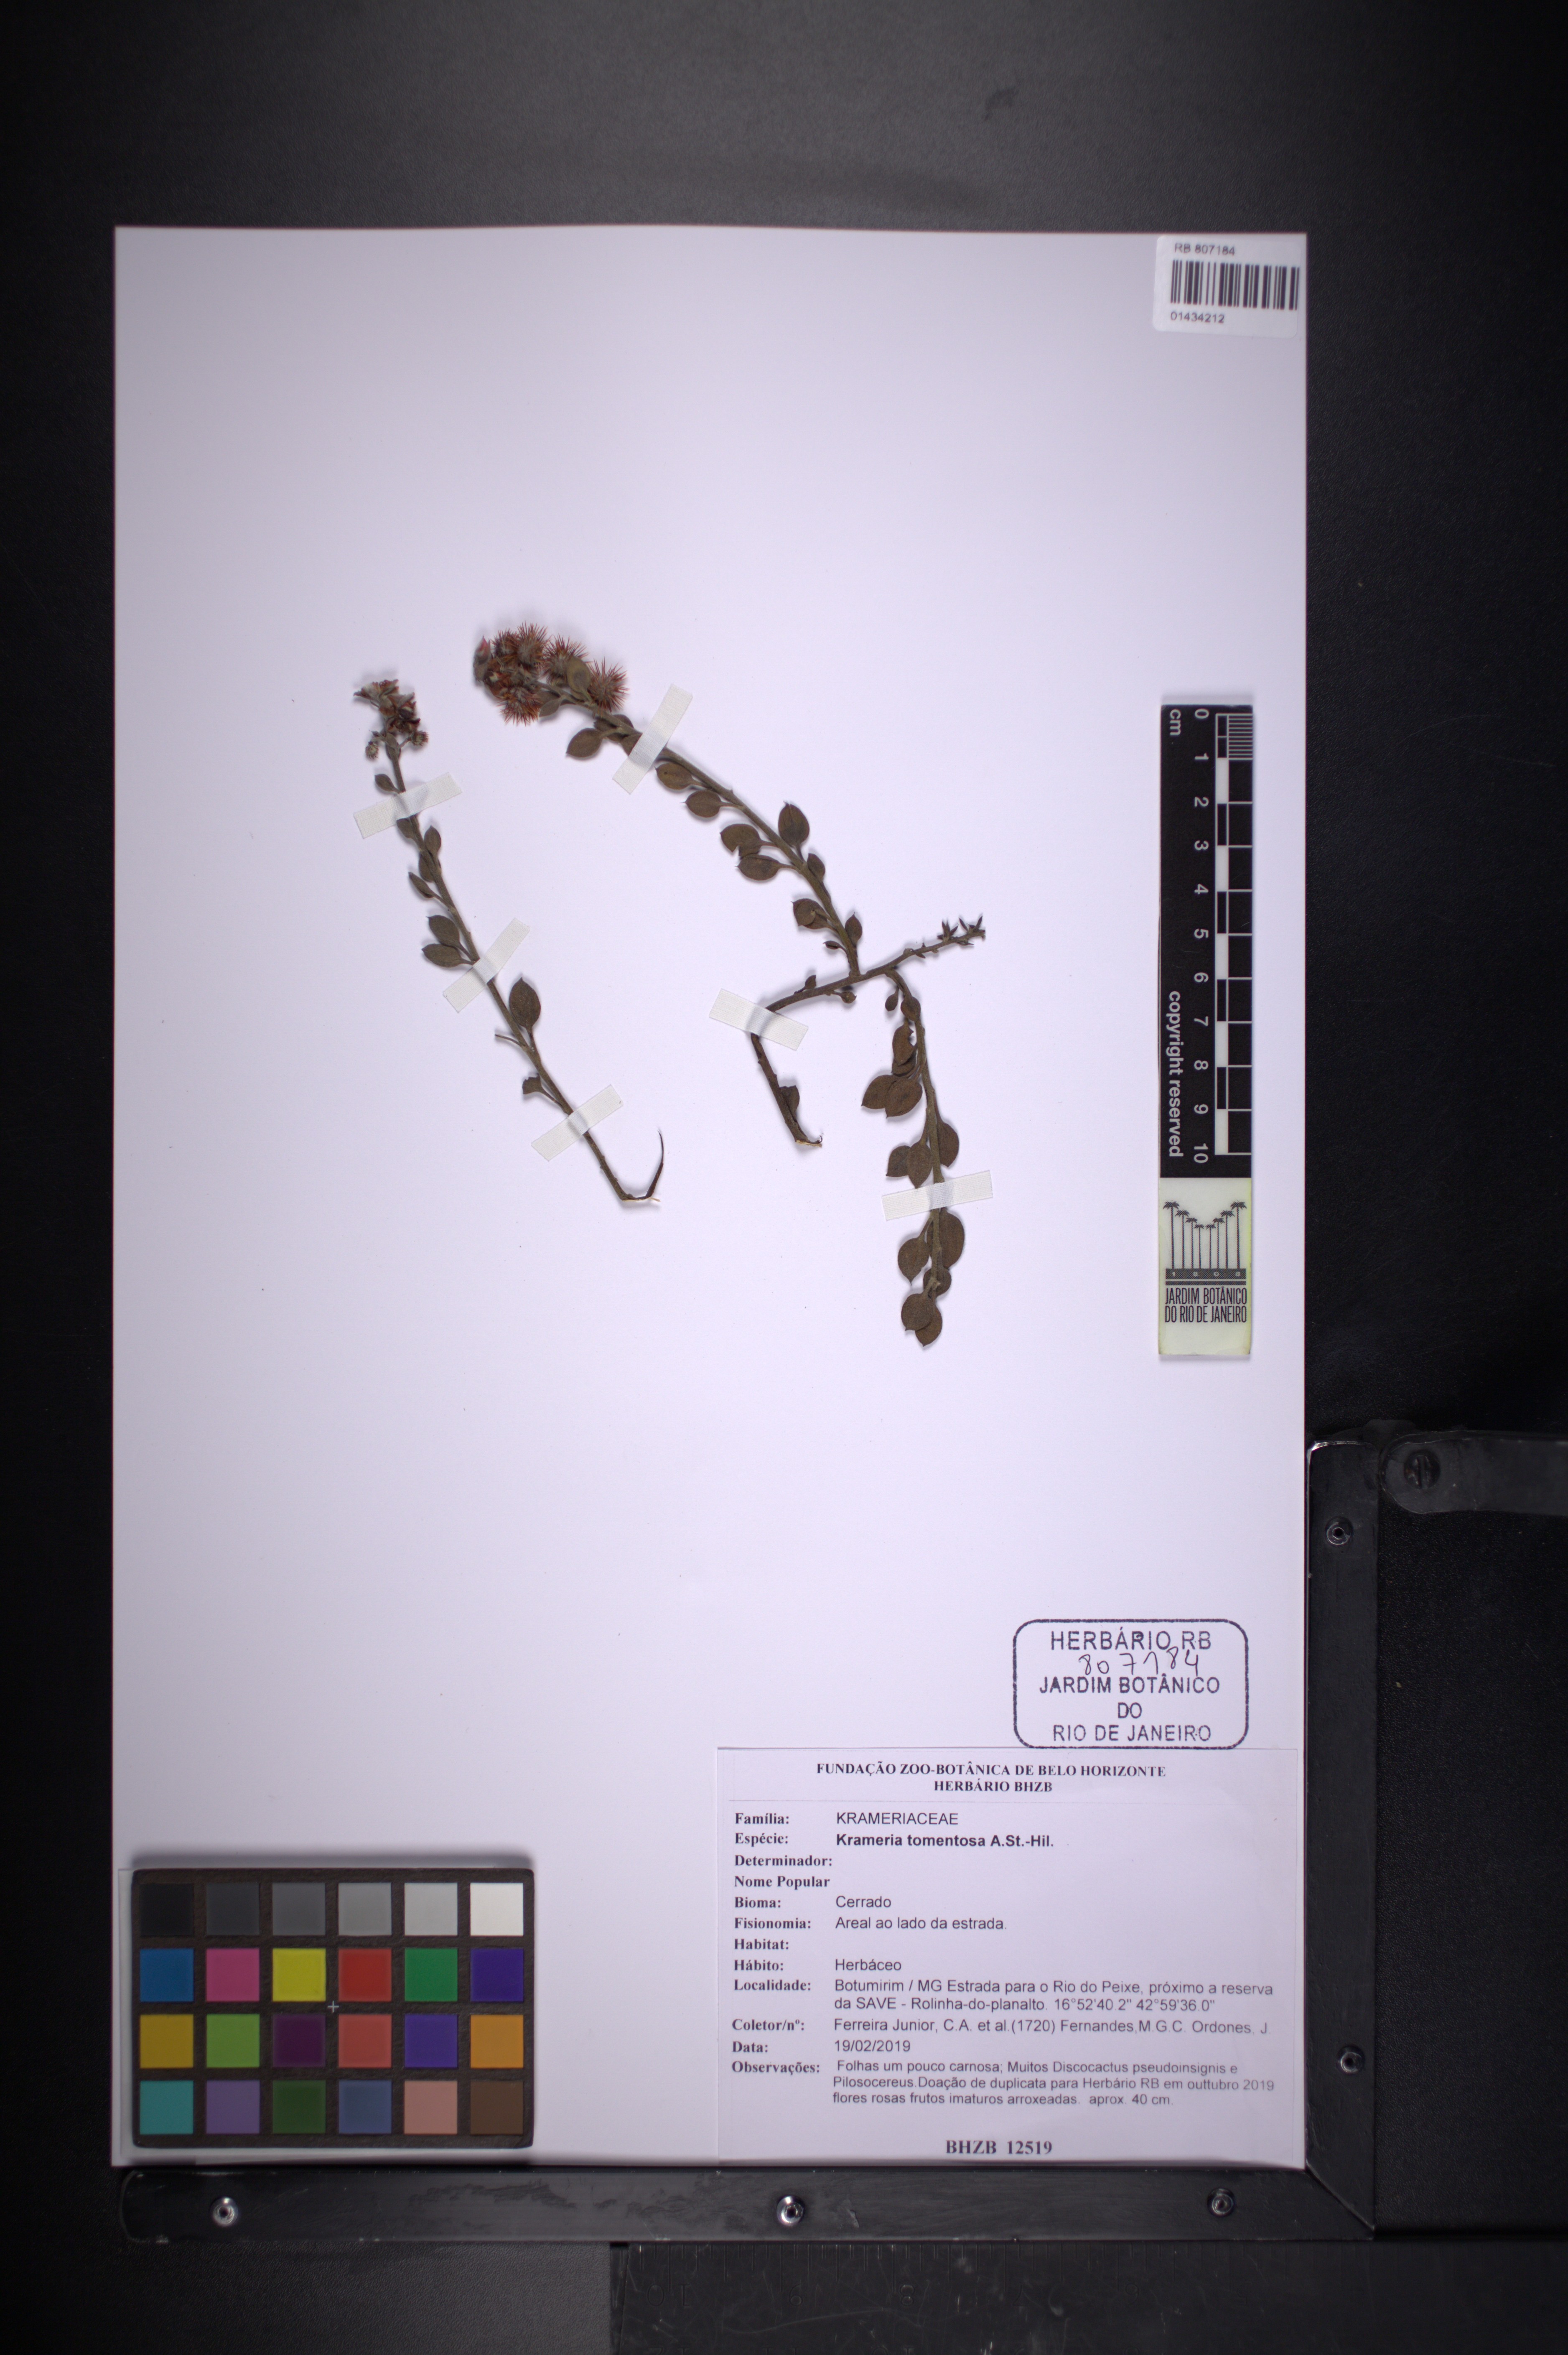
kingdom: Plantae
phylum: Tracheophyta
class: Magnoliopsida
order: Zygophyllales
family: Krameriaceae
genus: Krameria
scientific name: Krameria tomentosa
